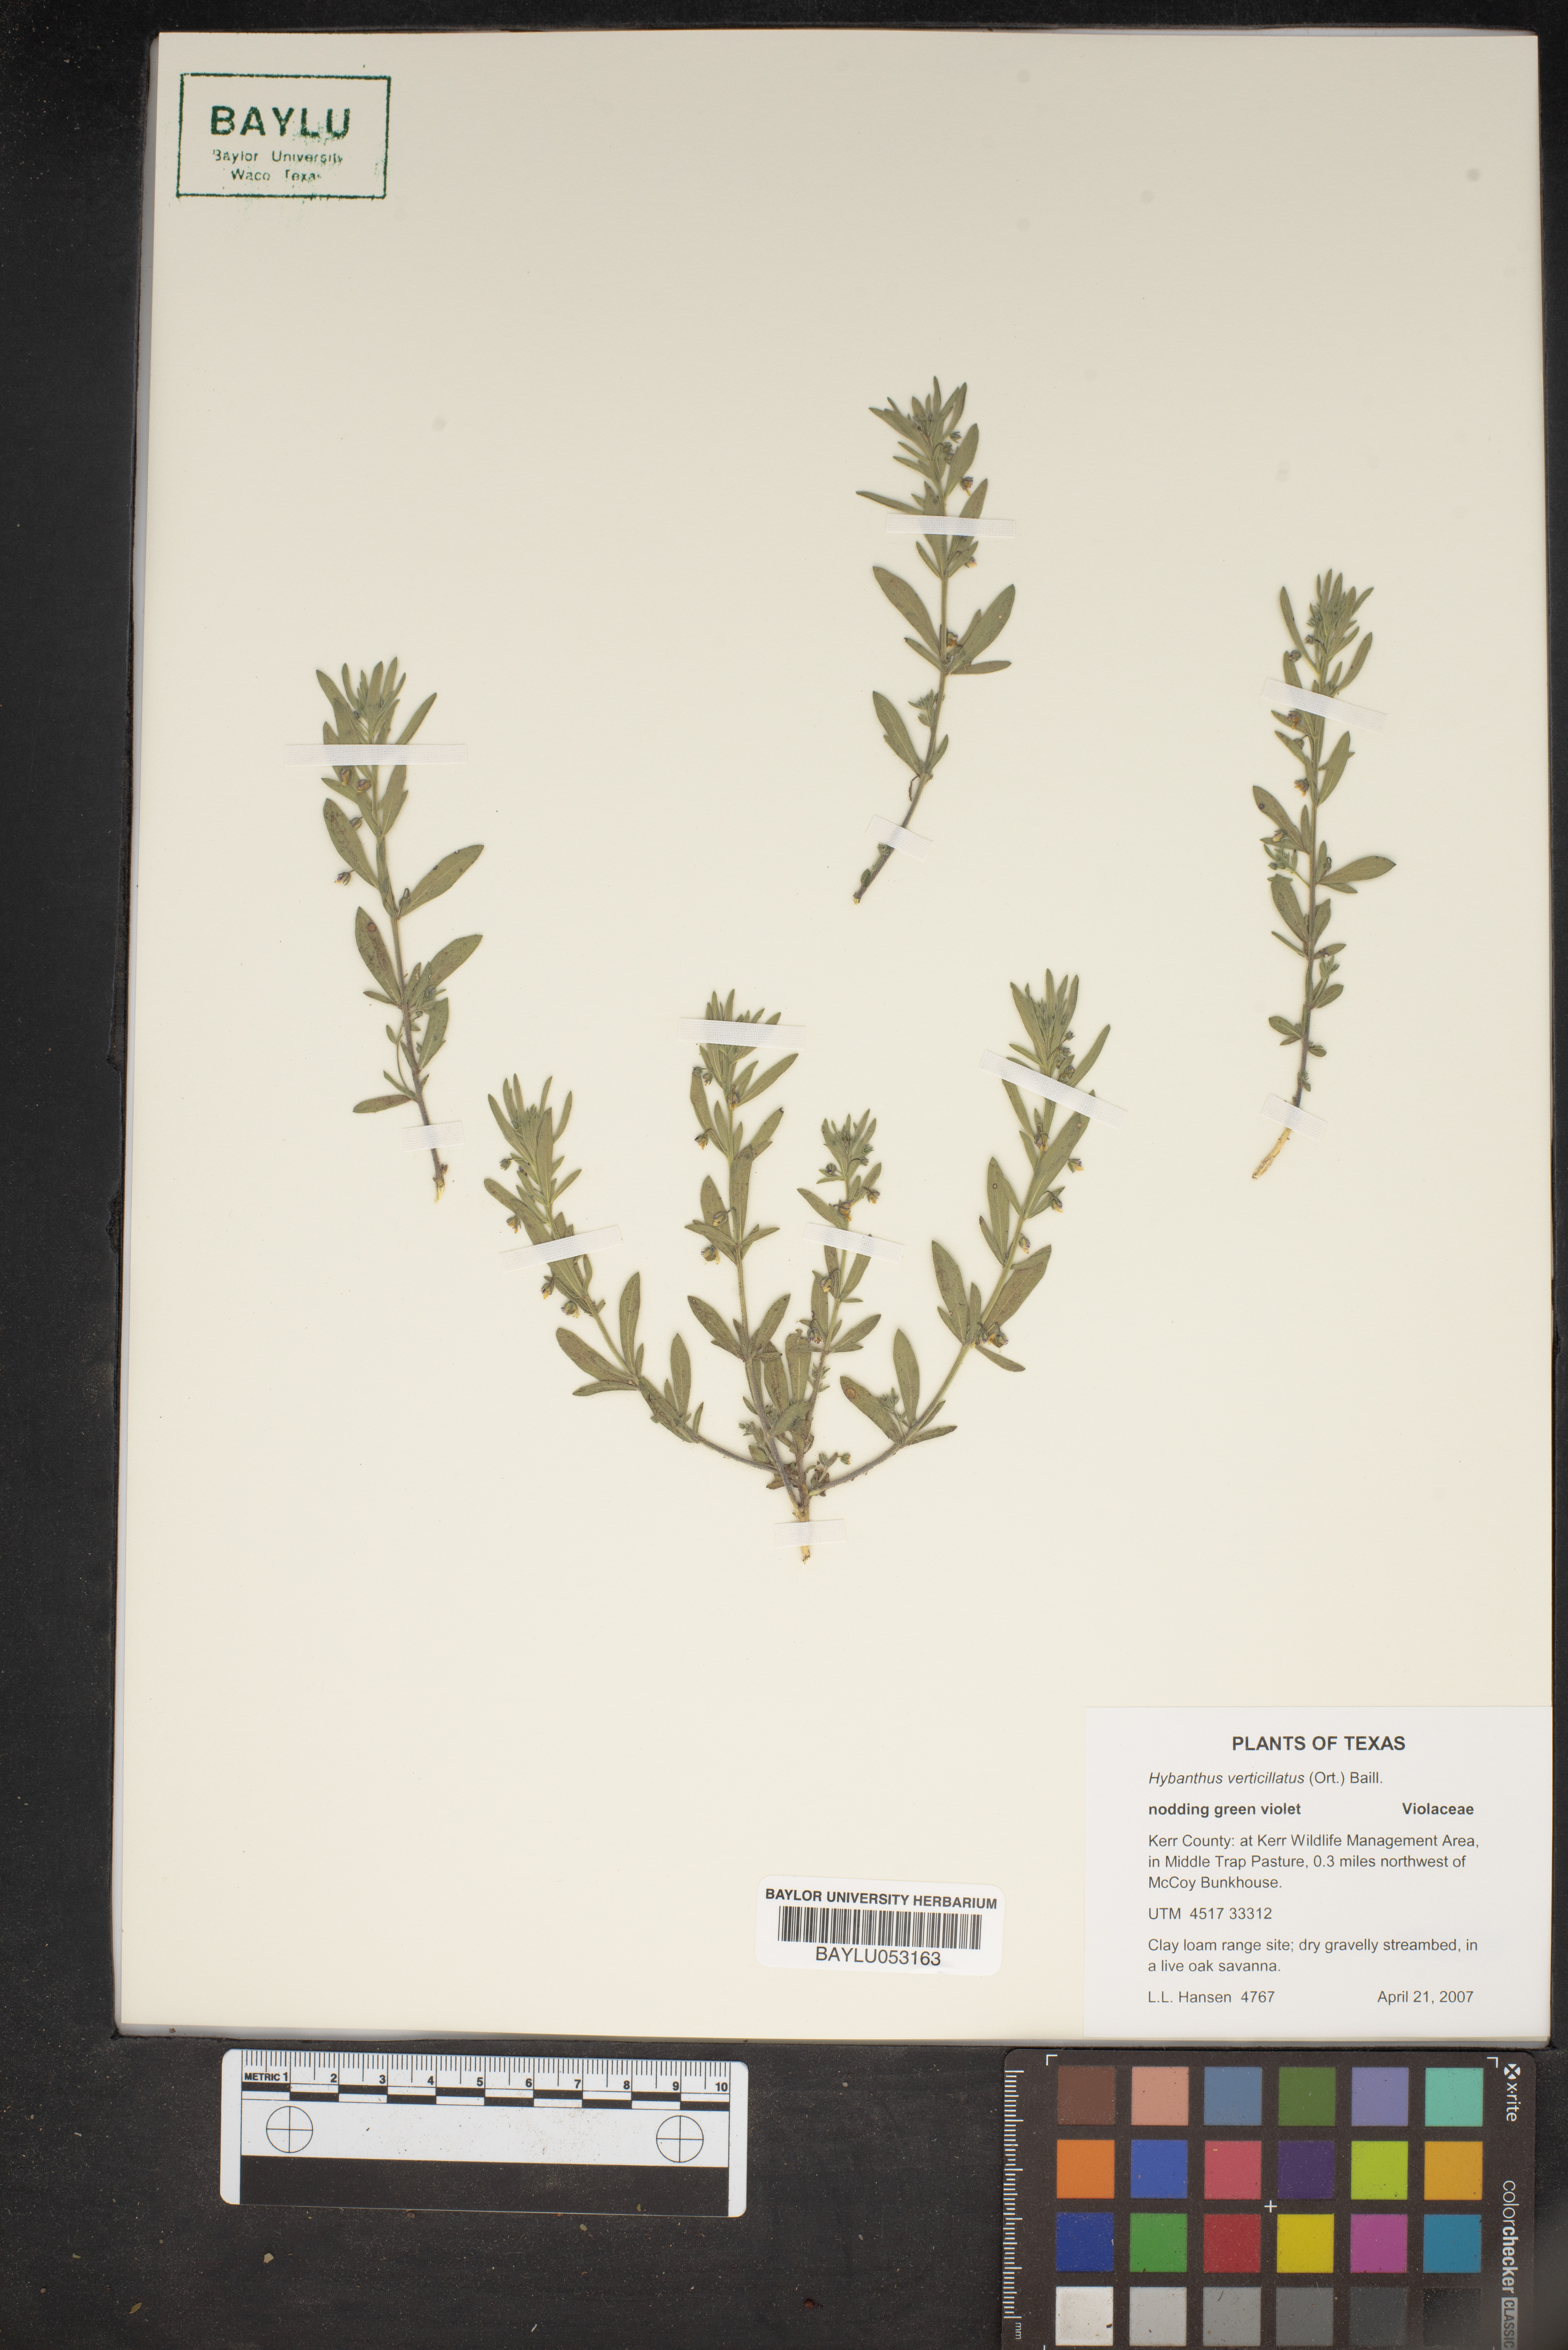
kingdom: Plantae
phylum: Tracheophyta
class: Magnoliopsida
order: Malpighiales
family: Violaceae
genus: Pombalia
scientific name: Pombalia verticillata
